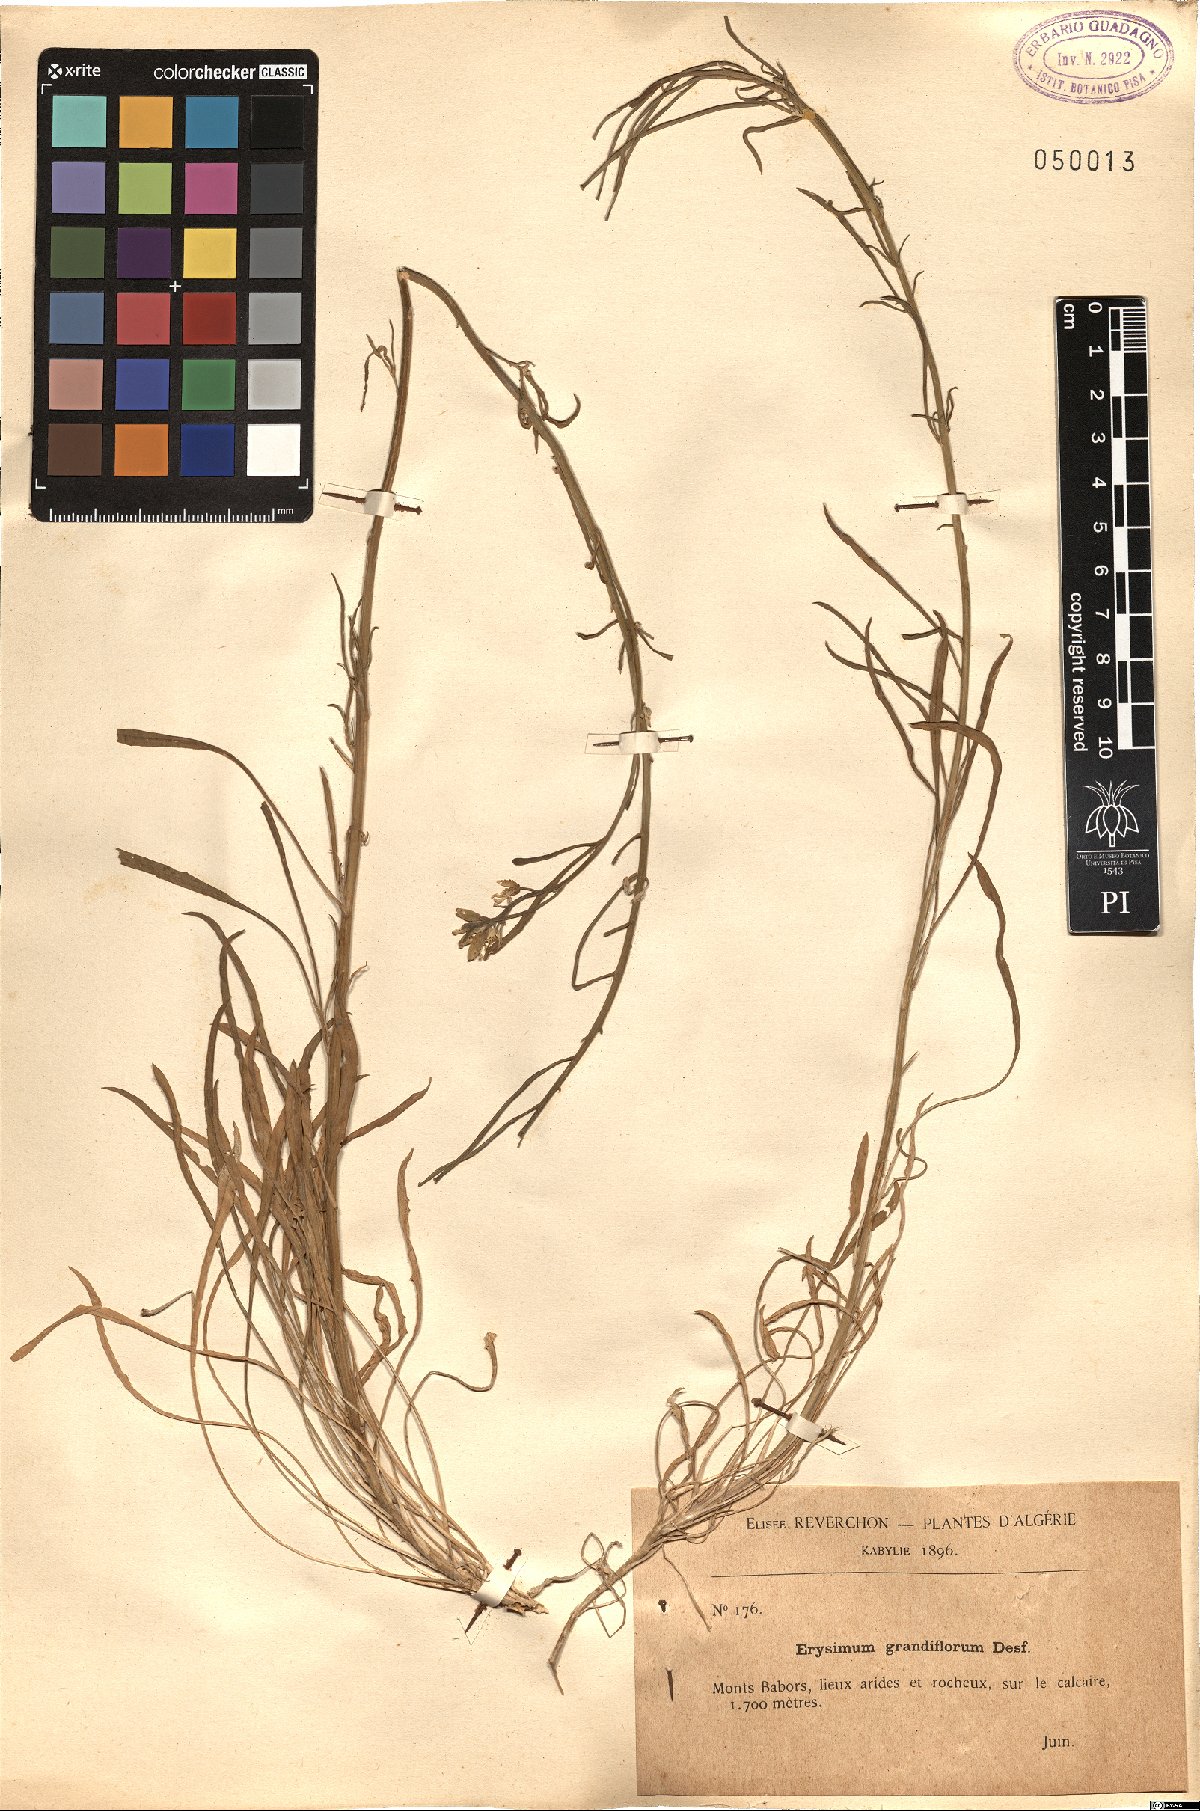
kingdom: Plantae
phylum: Tracheophyta
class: Magnoliopsida
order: Brassicales
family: Brassicaceae
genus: Erysimum
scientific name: Erysimum duriaei
